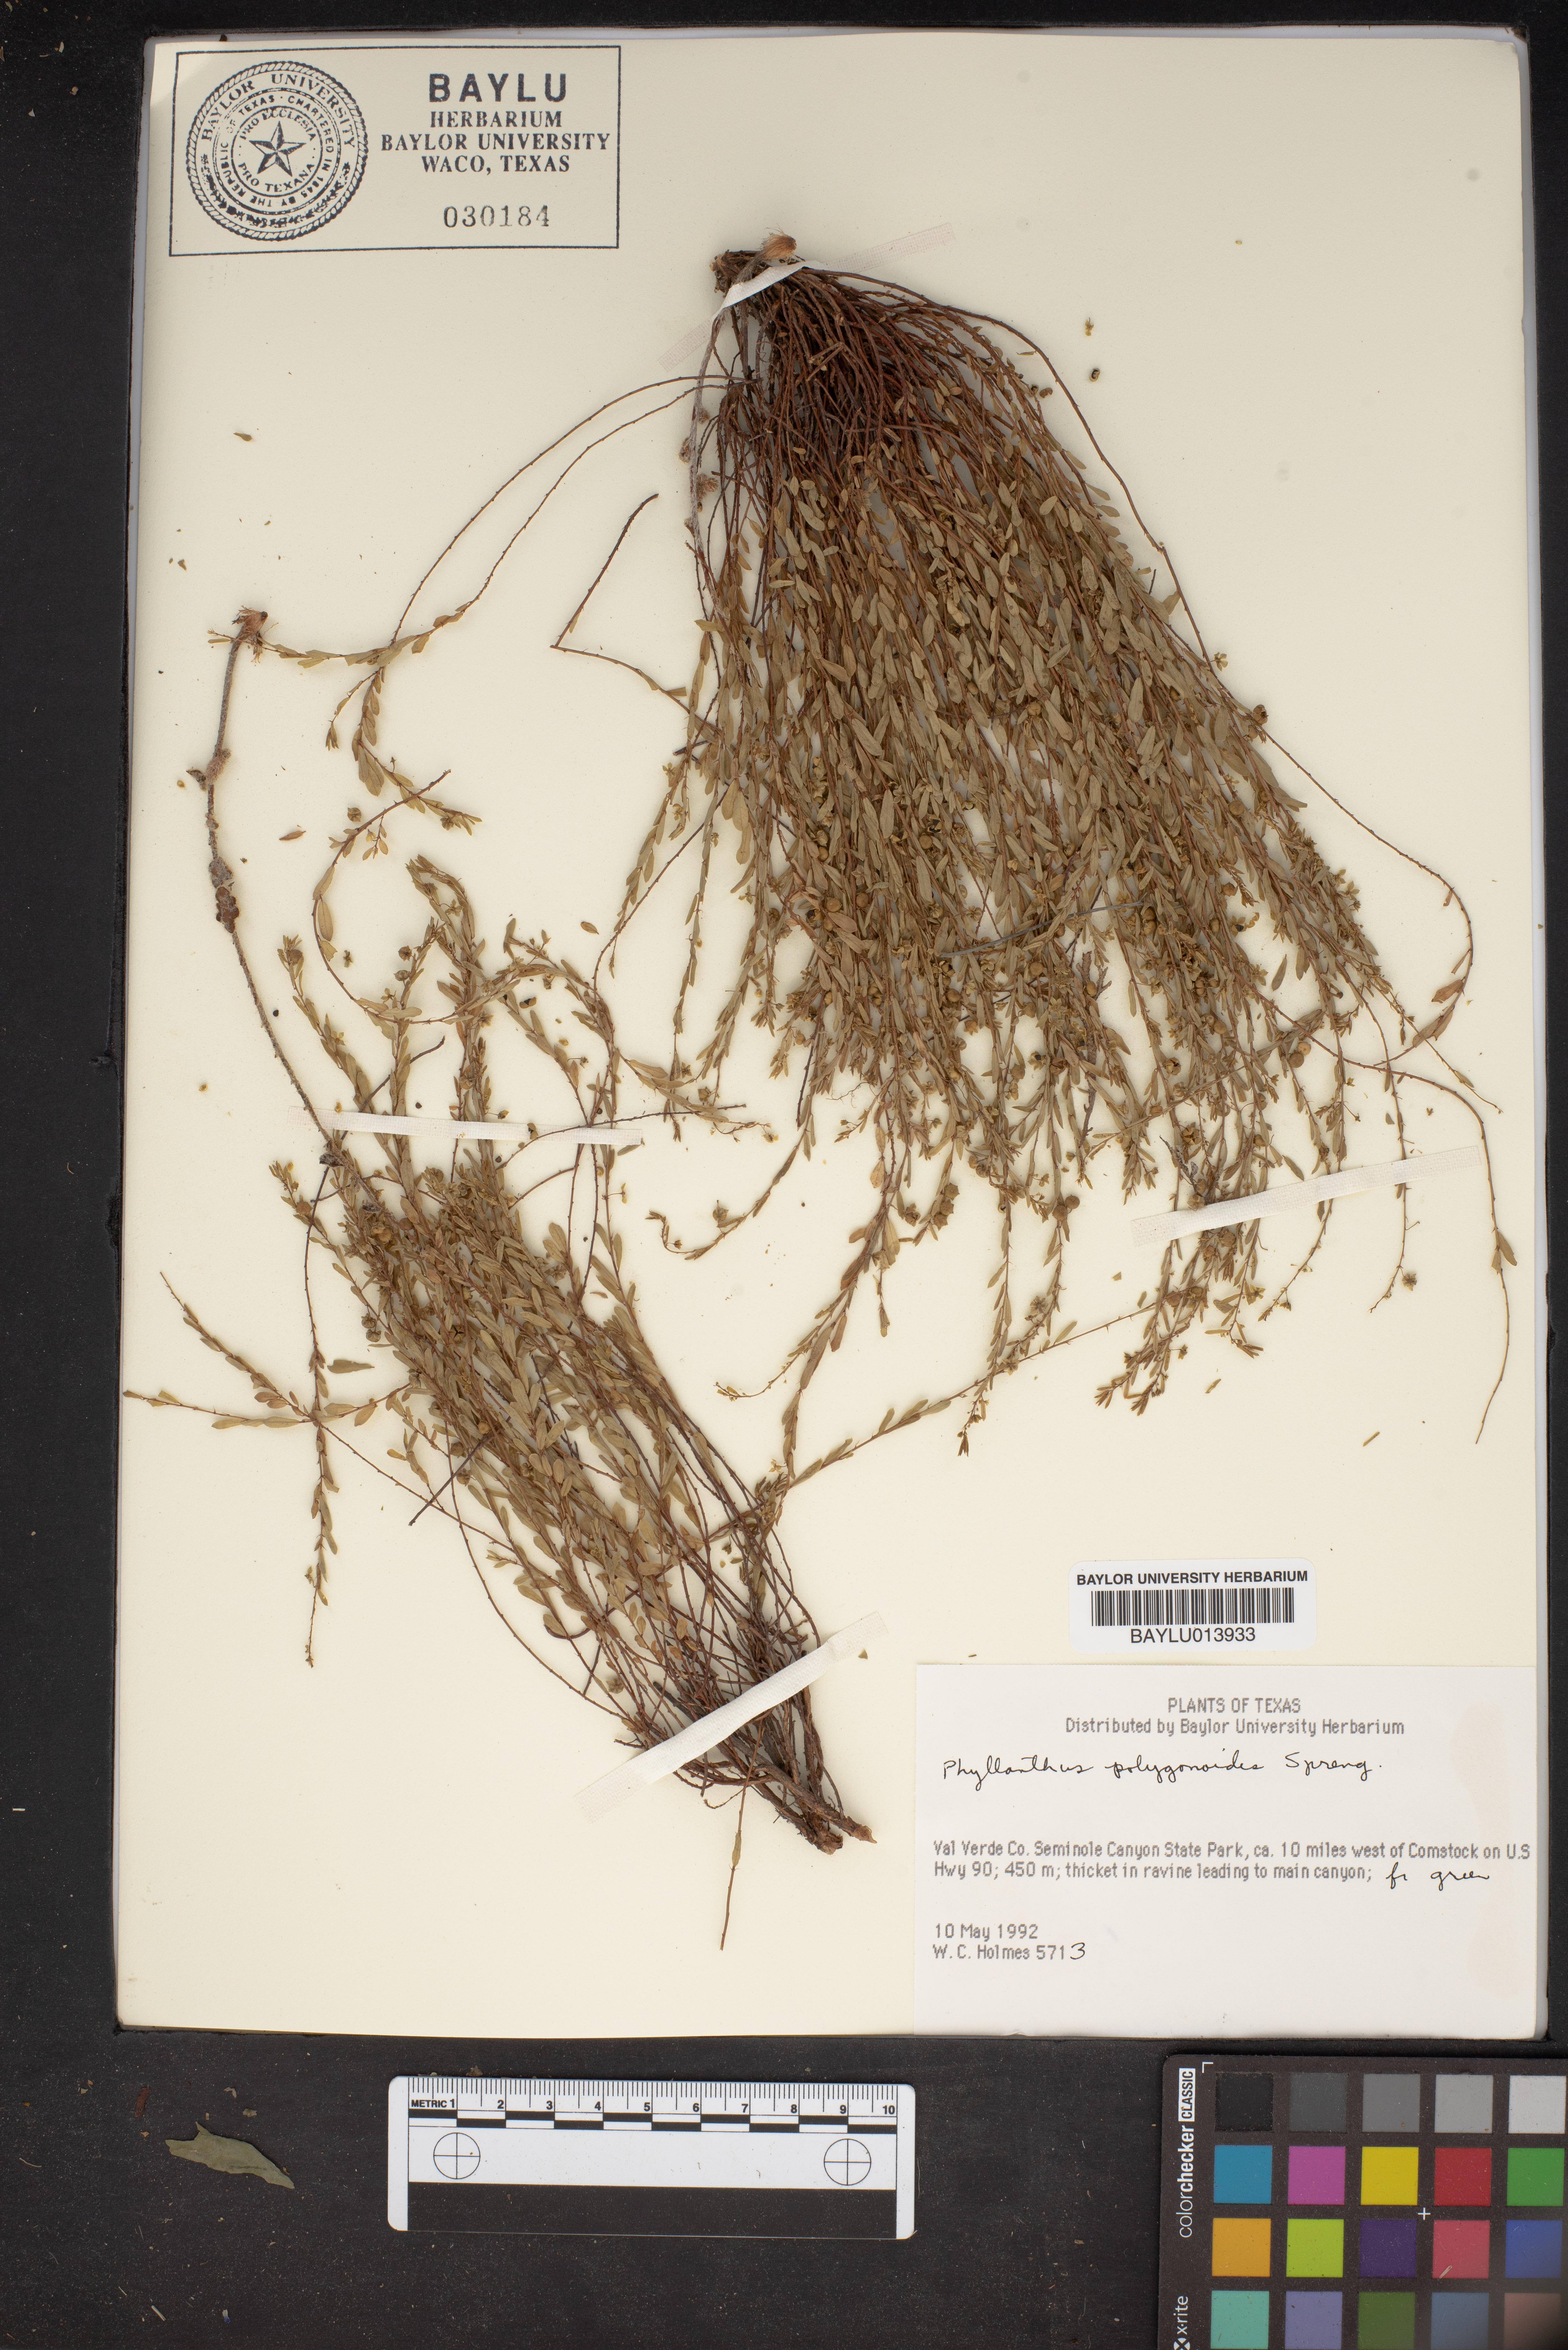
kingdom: Plantae
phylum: Tracheophyta
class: Magnoliopsida
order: Malpighiales
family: Phyllanthaceae
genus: Phyllanthus
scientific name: Phyllanthus polygonoides
